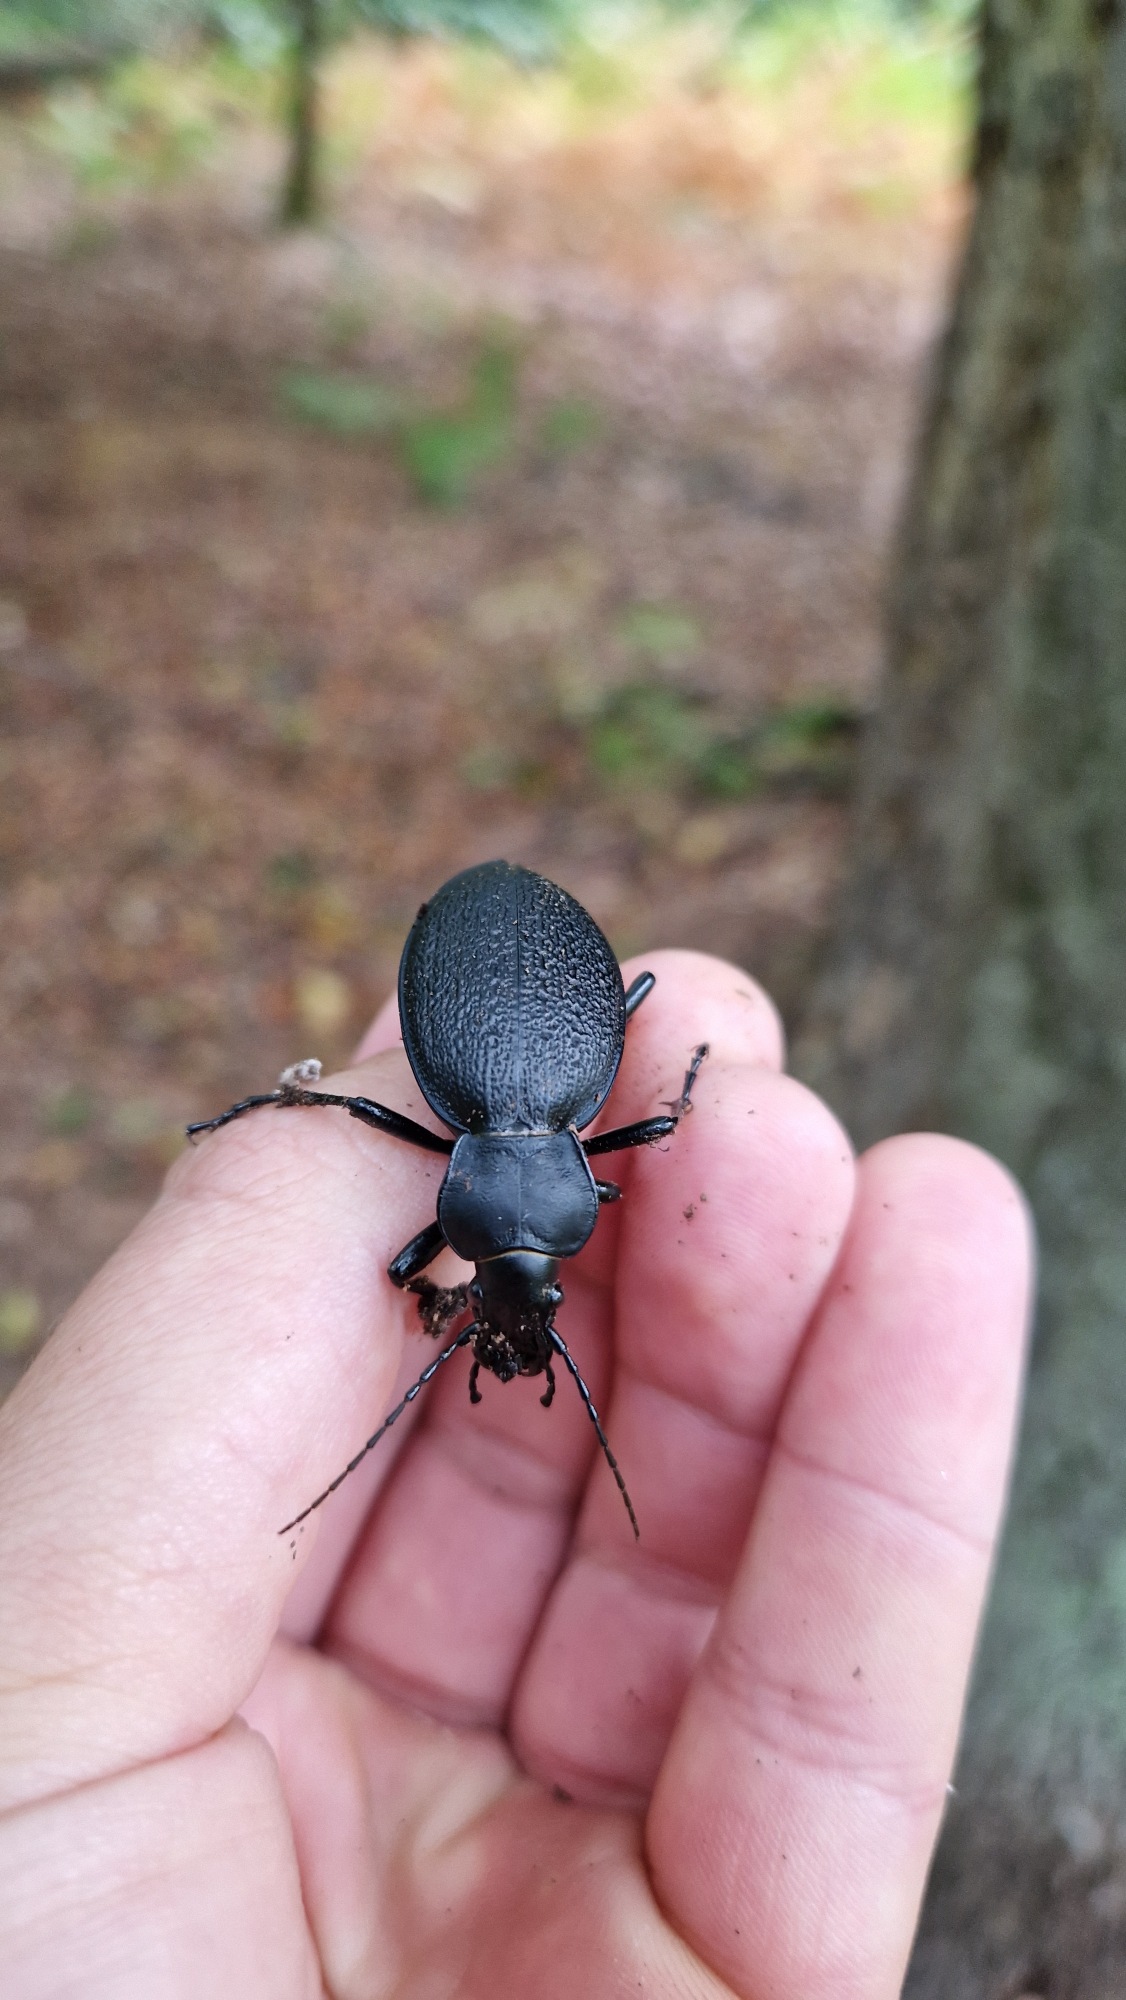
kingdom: Animalia
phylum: Arthropoda
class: Insecta
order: Coleoptera
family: Carabidae
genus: Carabus
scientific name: Carabus coriaceus
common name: Læderløber
